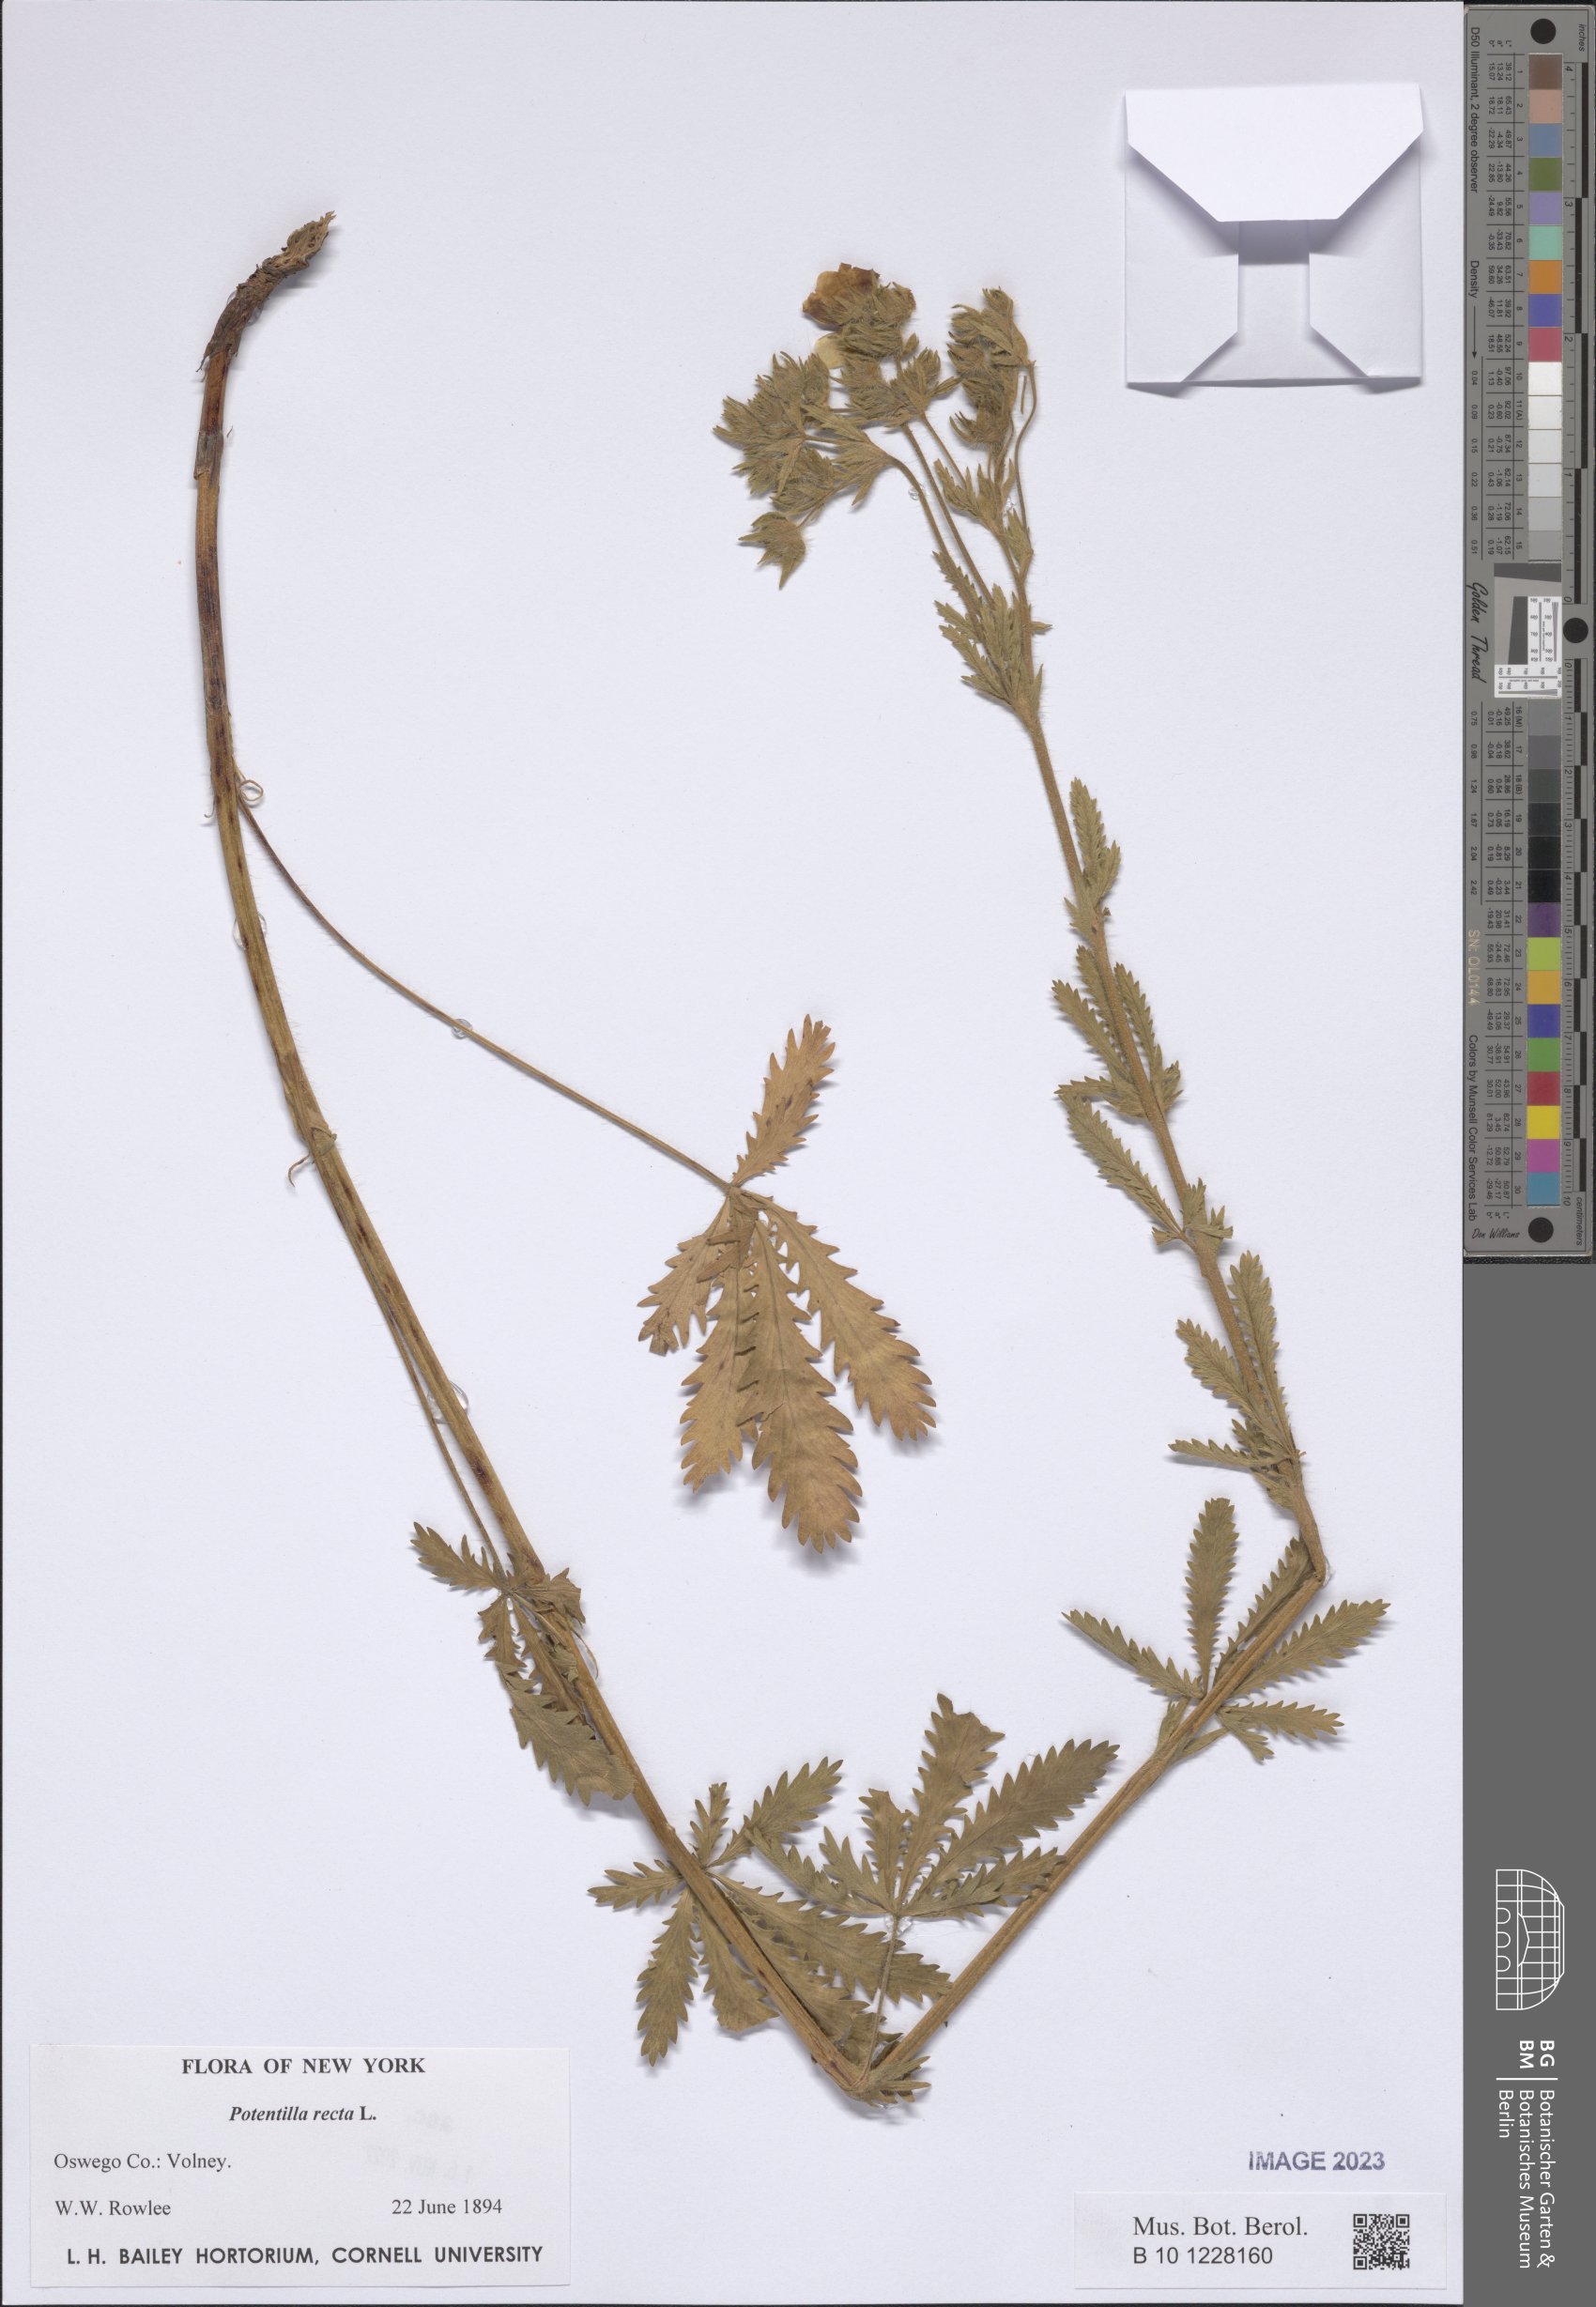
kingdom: Plantae
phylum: Tracheophyta
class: Magnoliopsida
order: Rosales
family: Rosaceae
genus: Potentilla
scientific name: Potentilla recta
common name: Sulphur cinquefoil
